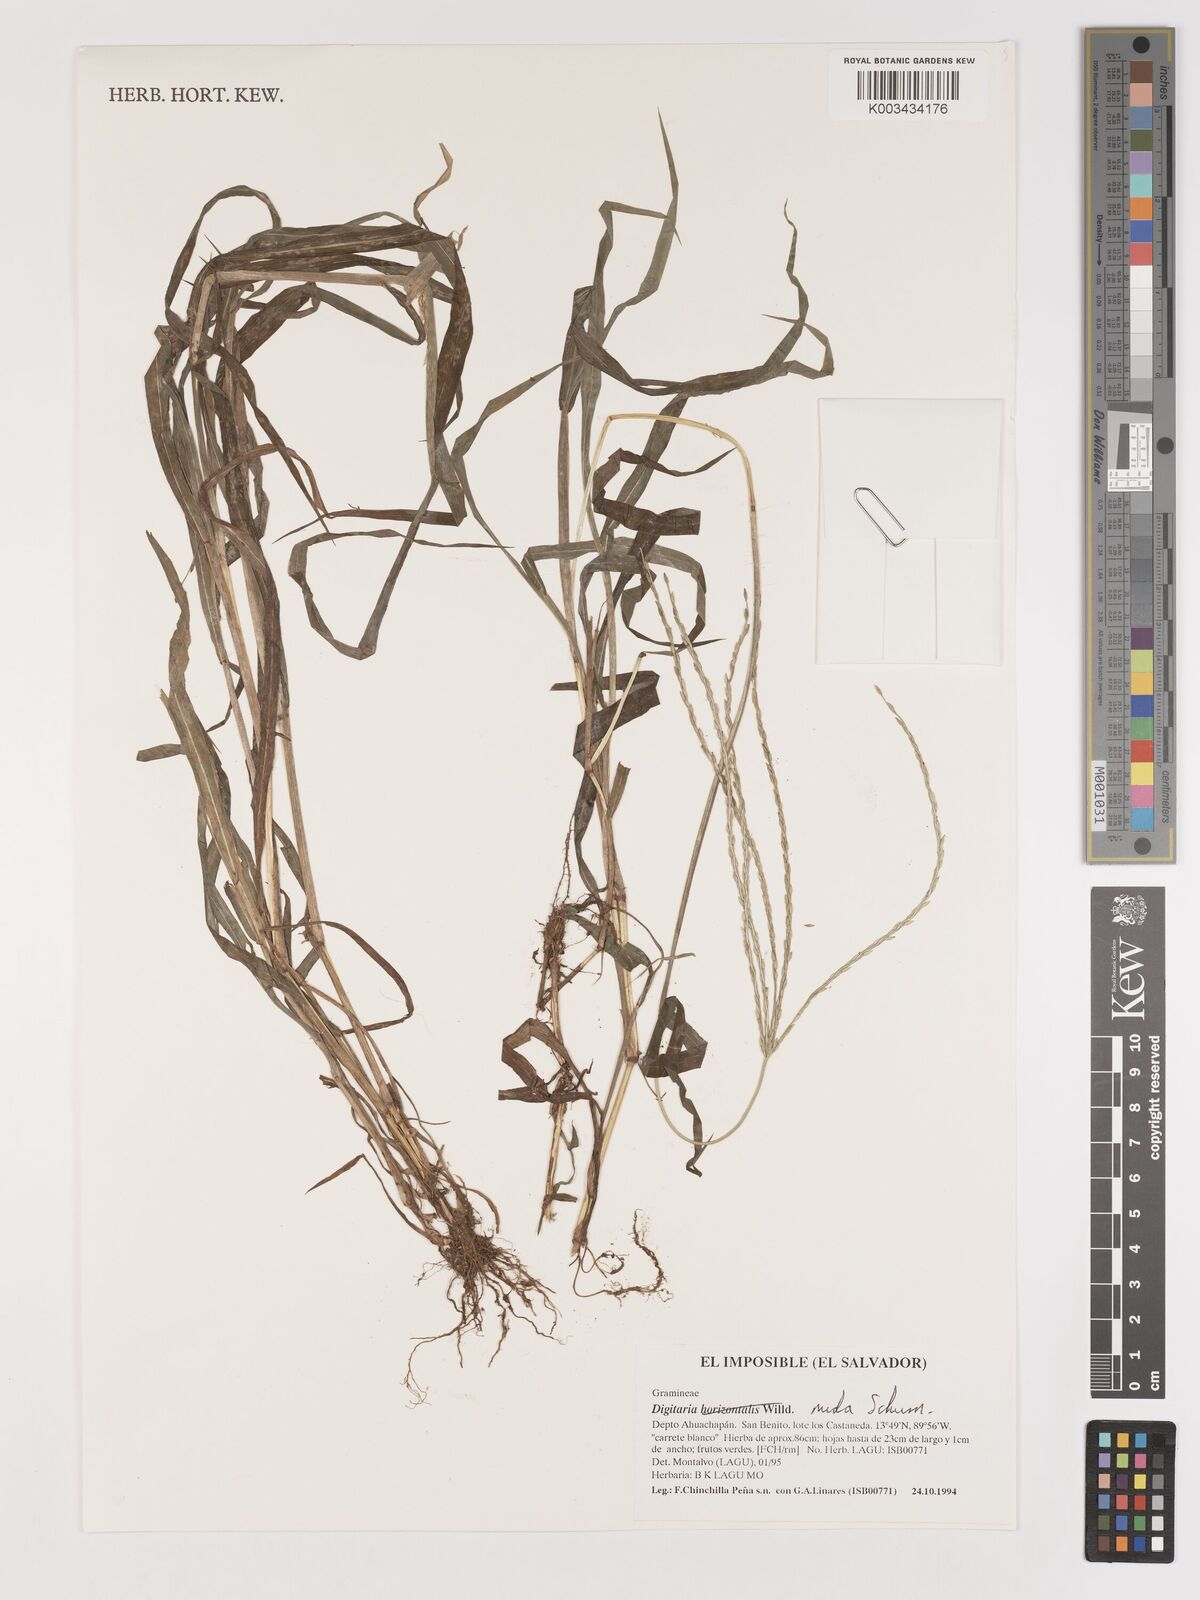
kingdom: Plantae
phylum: Tracheophyta
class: Liliopsida
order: Poales
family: Poaceae
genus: Digitaria
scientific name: Digitaria nuda
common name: Naked crabgrass
